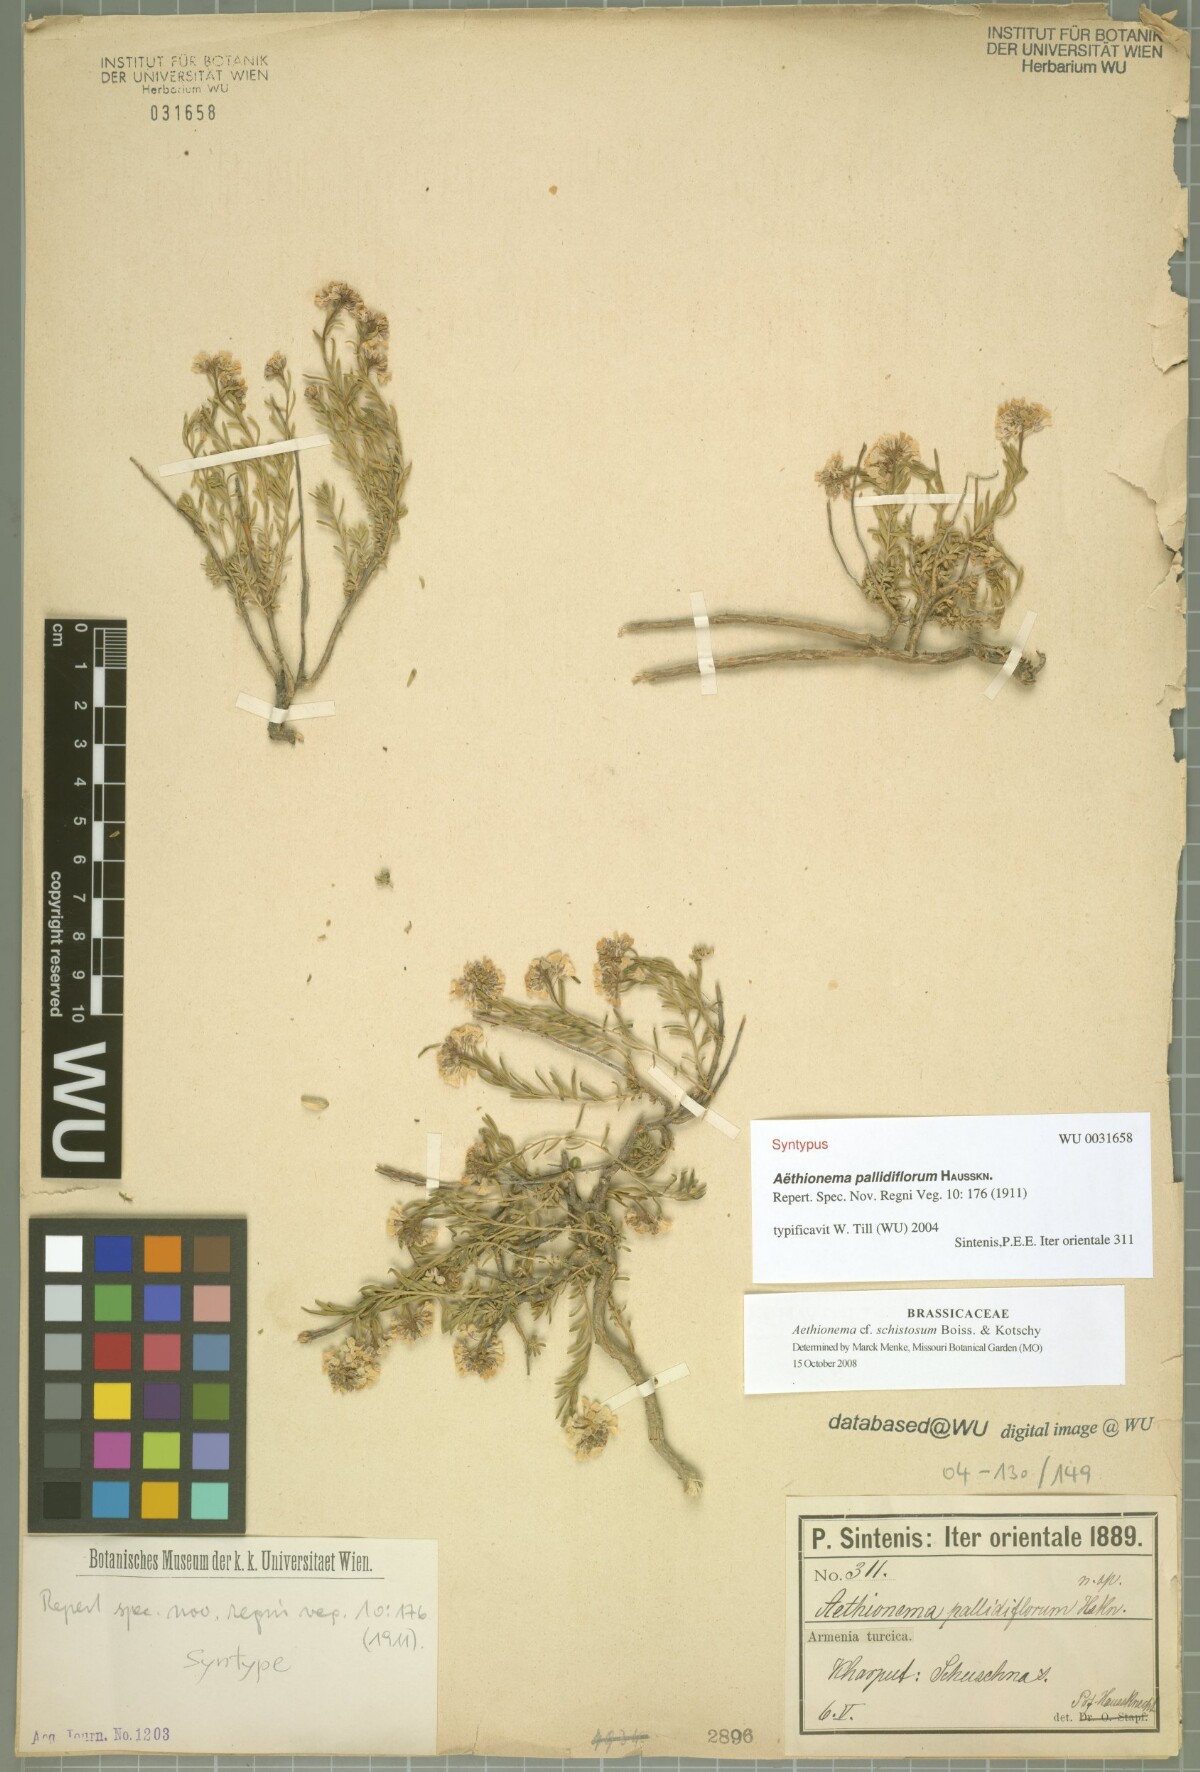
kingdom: Plantae
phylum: Tracheophyta
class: Magnoliopsida
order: Brassicales
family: Brassicaceae
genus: Aethionema
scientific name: Aethionema grandiflorum
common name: Persian stonecress
